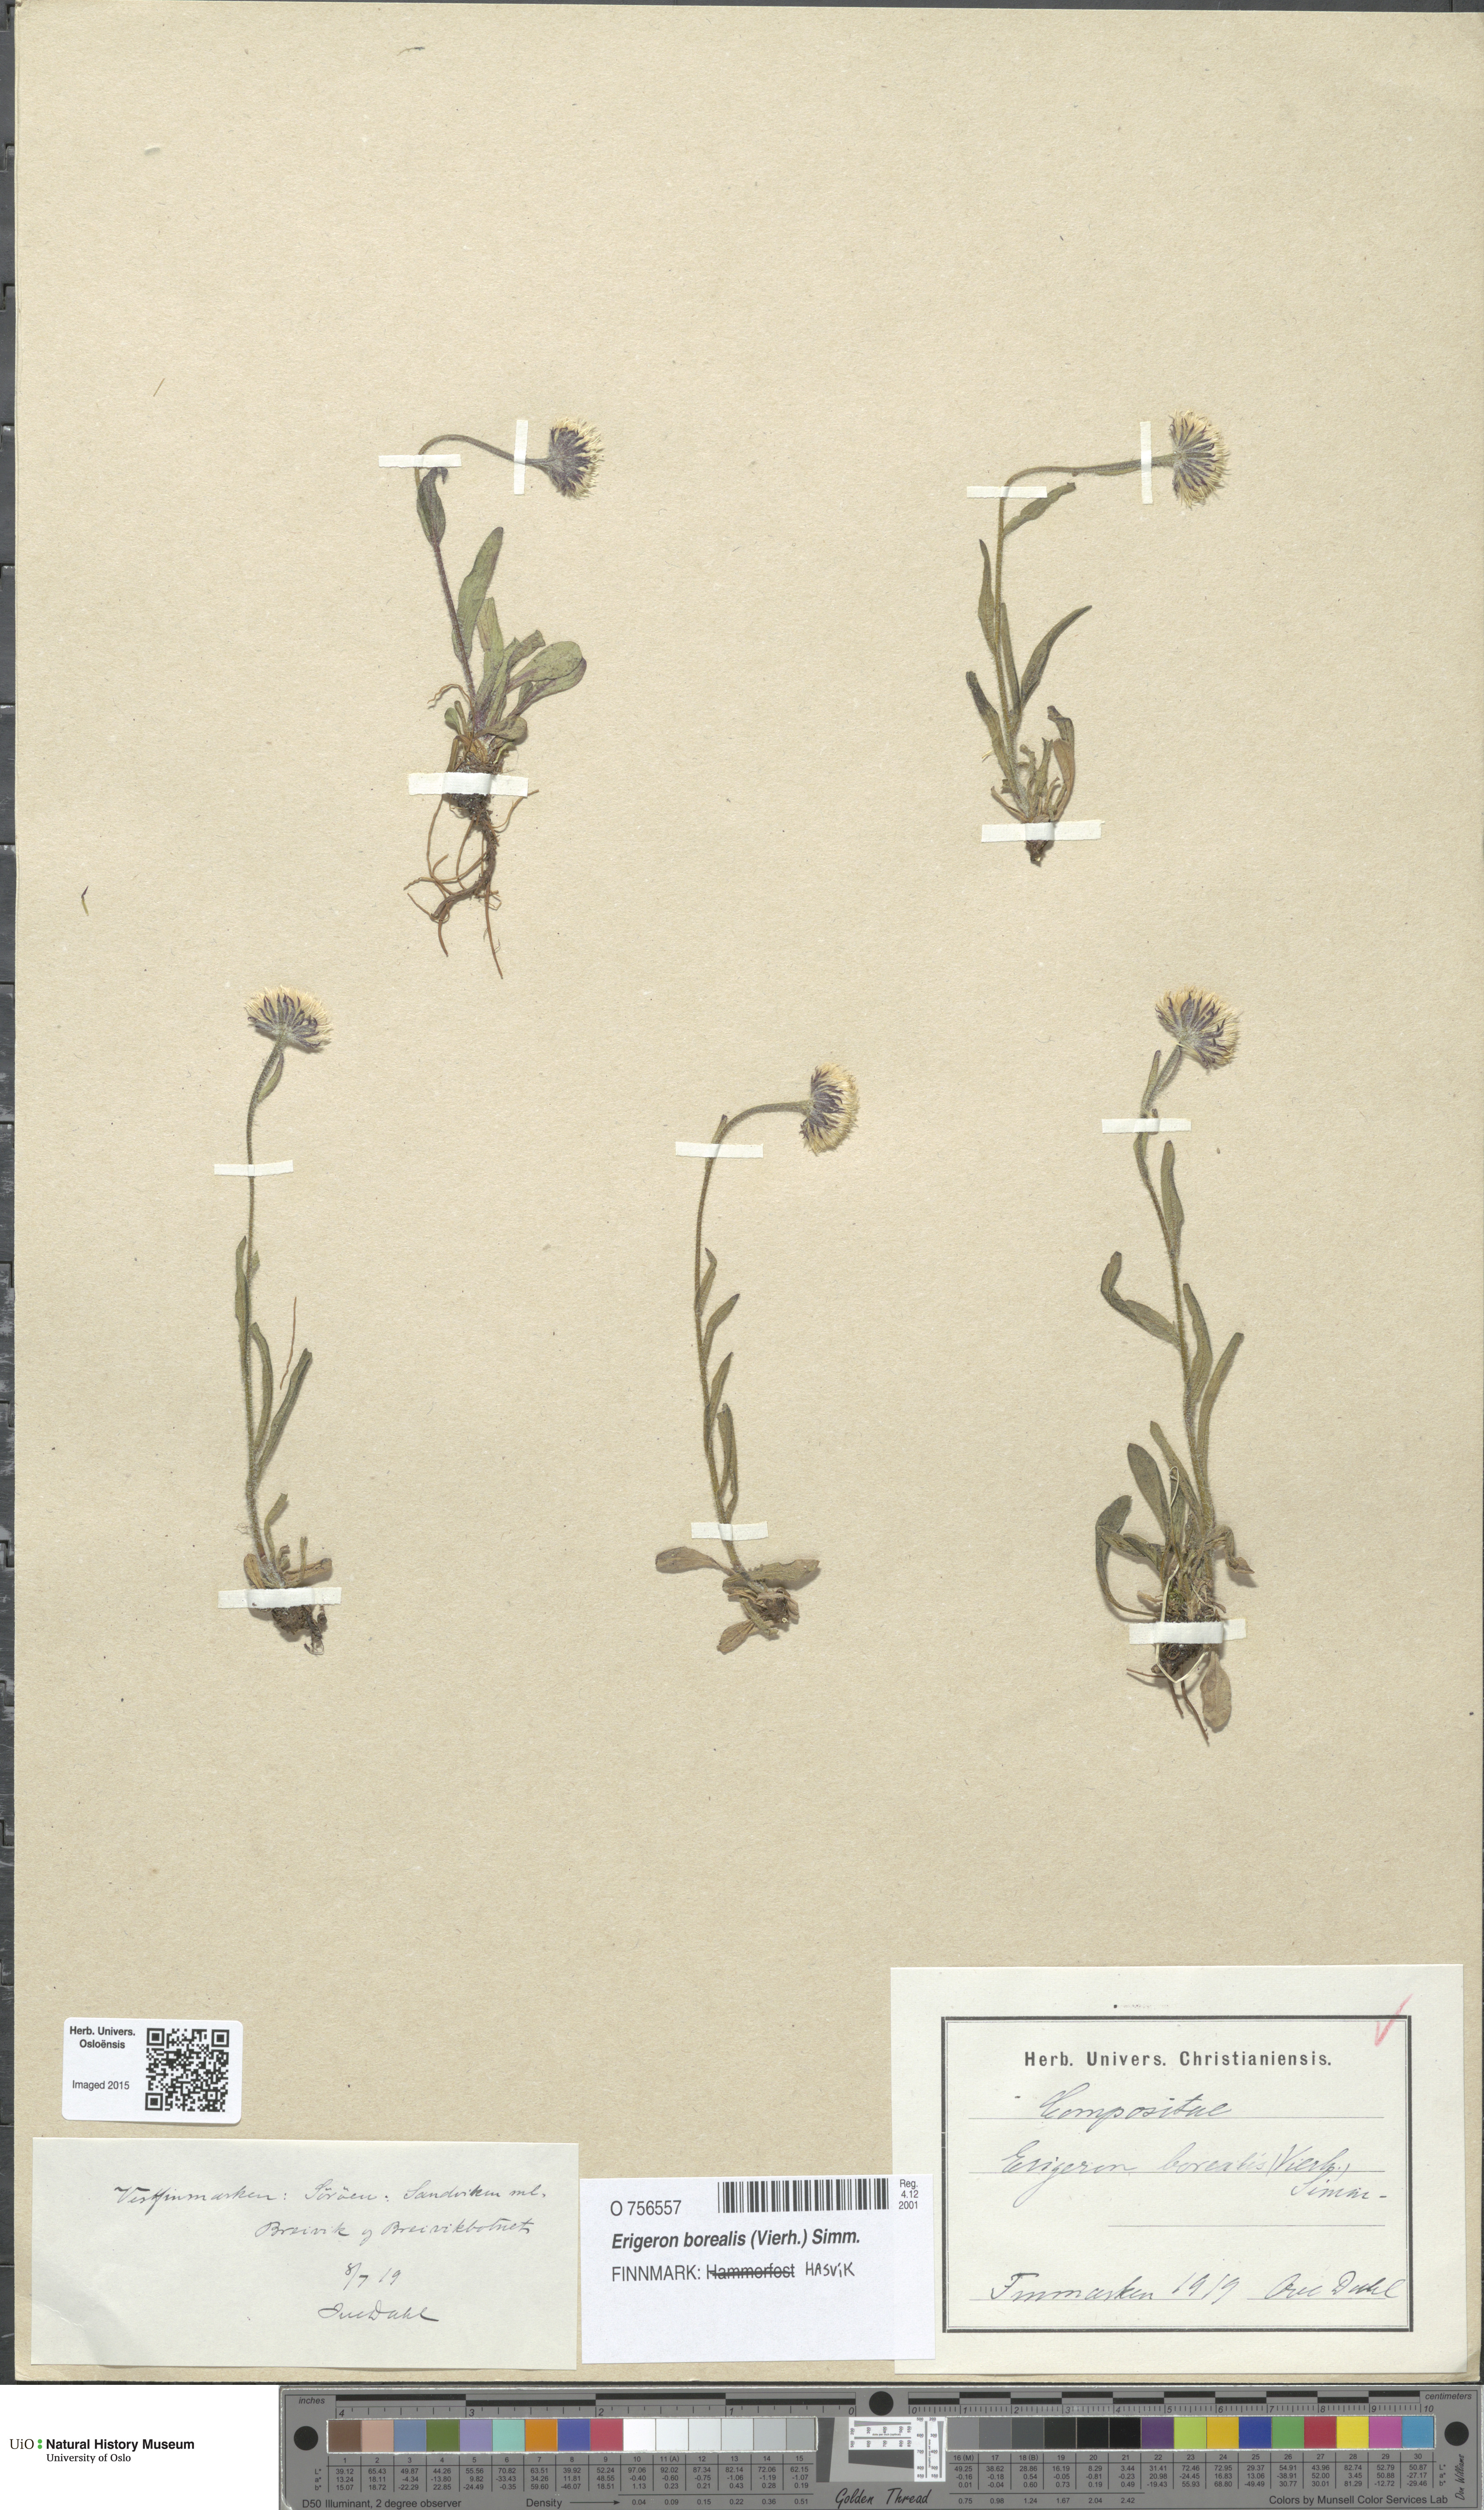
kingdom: Plantae
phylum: Tracheophyta
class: Magnoliopsida
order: Asterales
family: Asteraceae
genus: Erigeron
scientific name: Erigeron borealis
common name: Alpine fleabane
